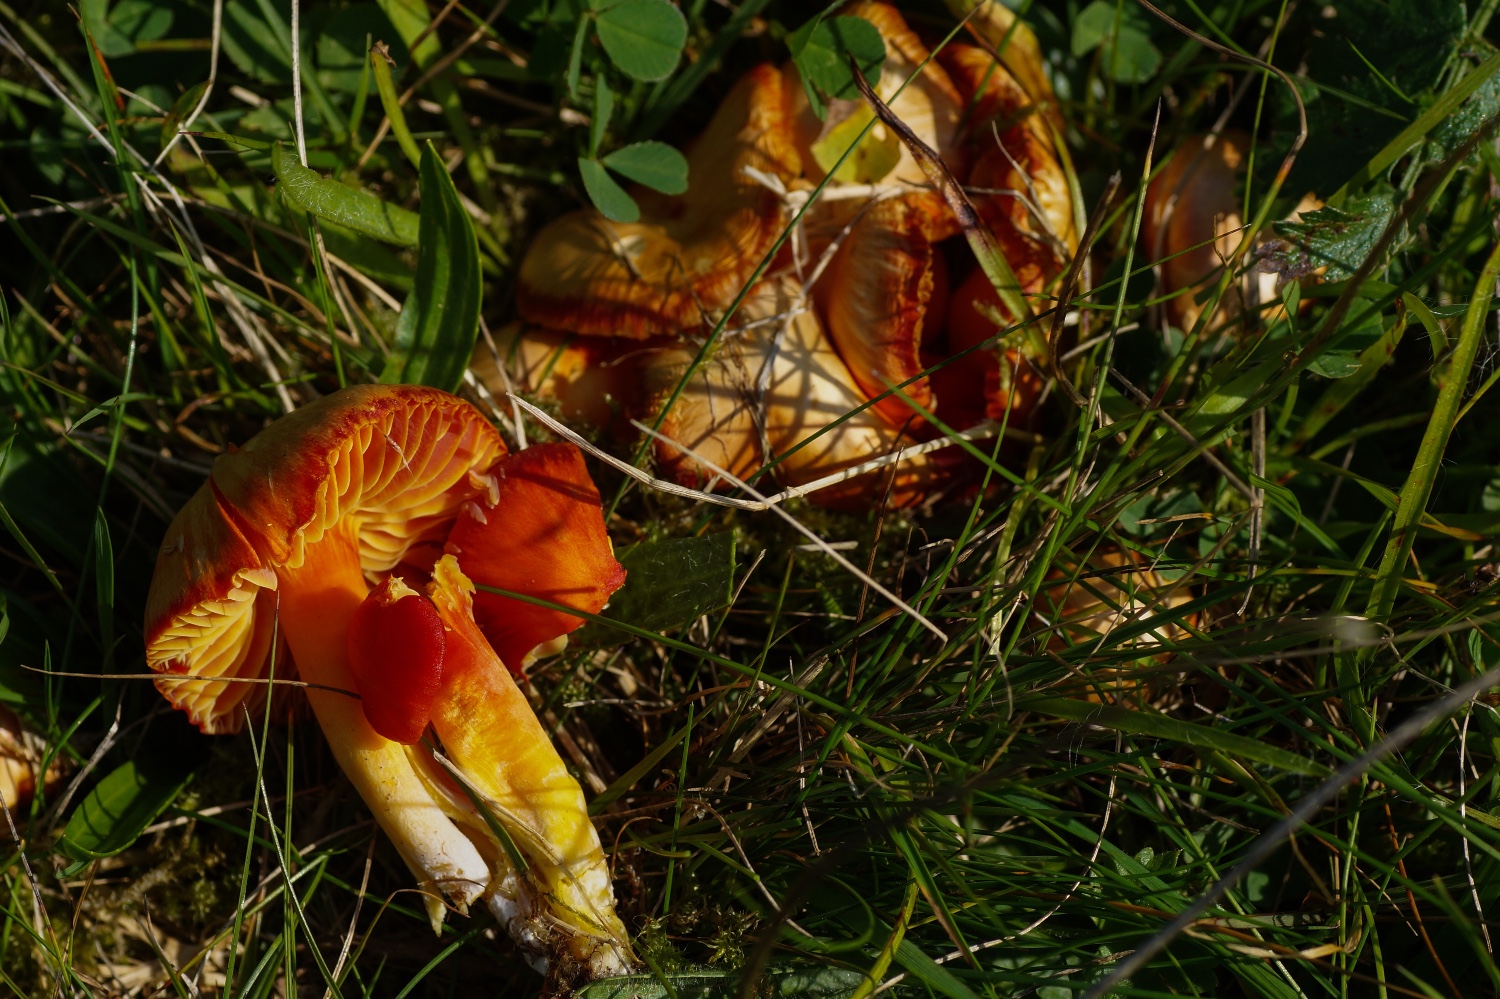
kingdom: Fungi
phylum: Basidiomycota
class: Agaricomycetes
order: Agaricales
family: Hygrophoraceae
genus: Hygrocybe
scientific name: Hygrocybe splendidissima
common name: knaldrød vokshat
